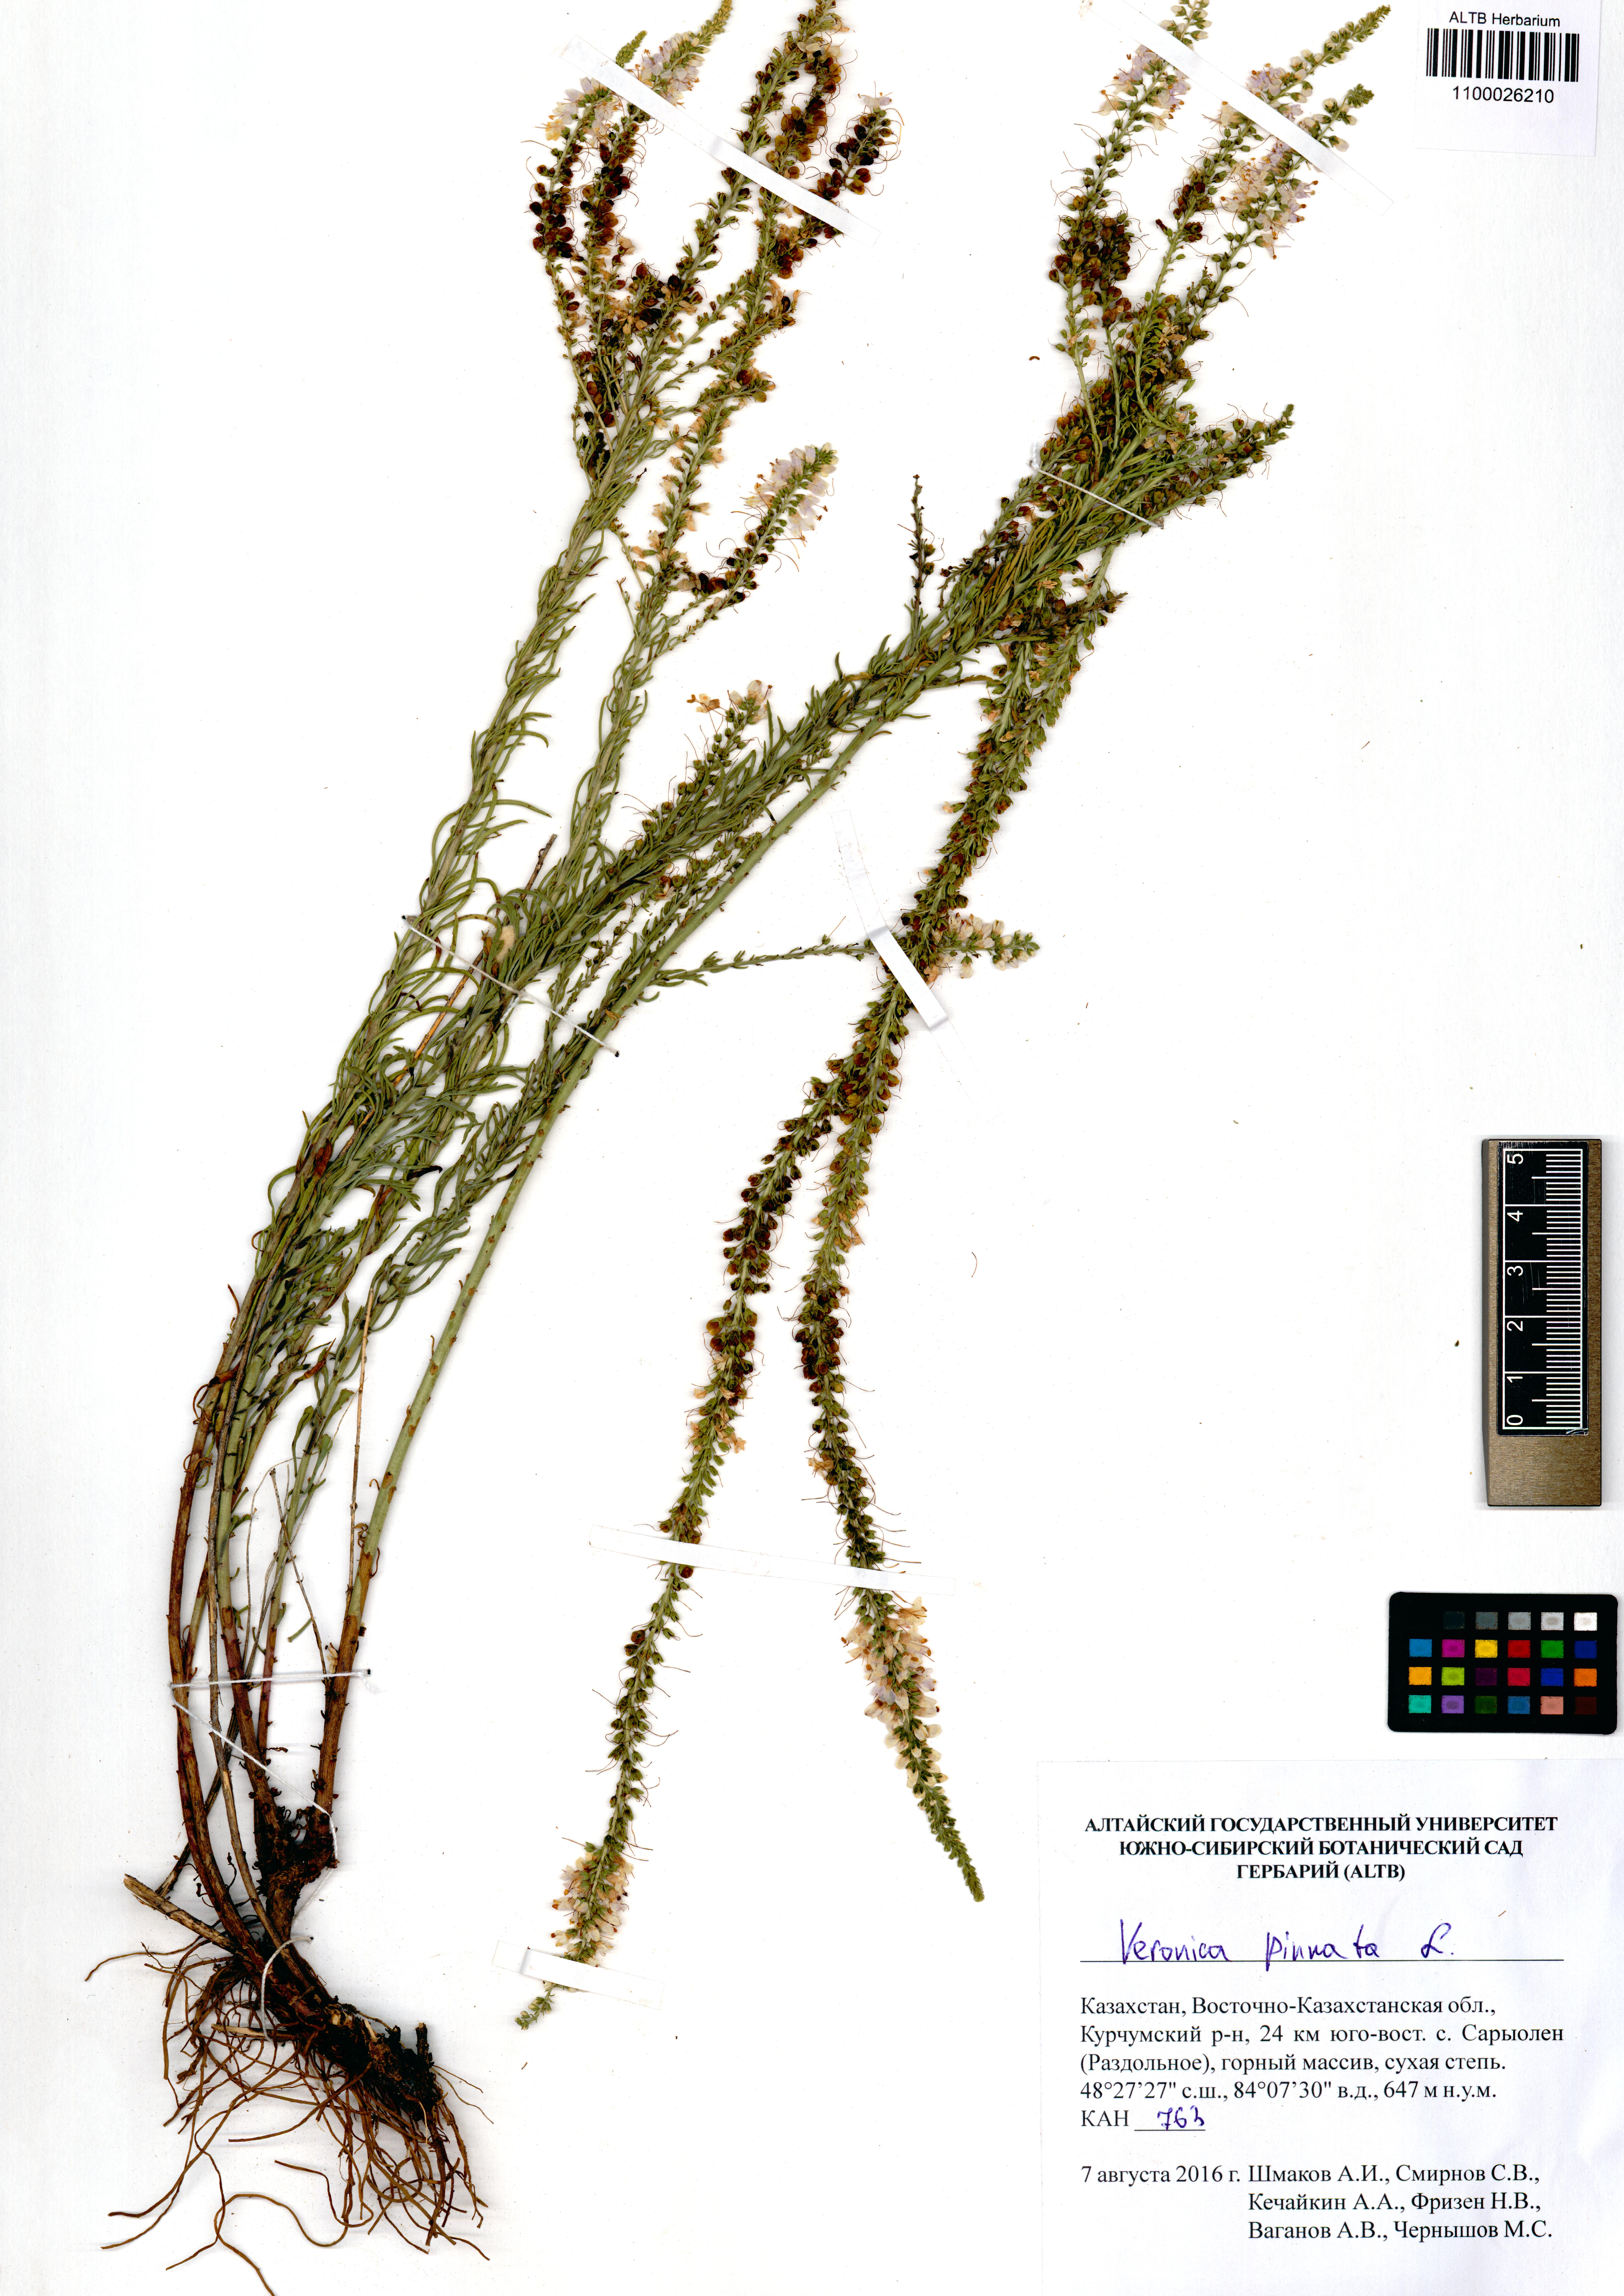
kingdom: Plantae
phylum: Tracheophyta
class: Magnoliopsida
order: Lamiales
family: Plantaginaceae
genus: Veronica
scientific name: Veronica pinnata
